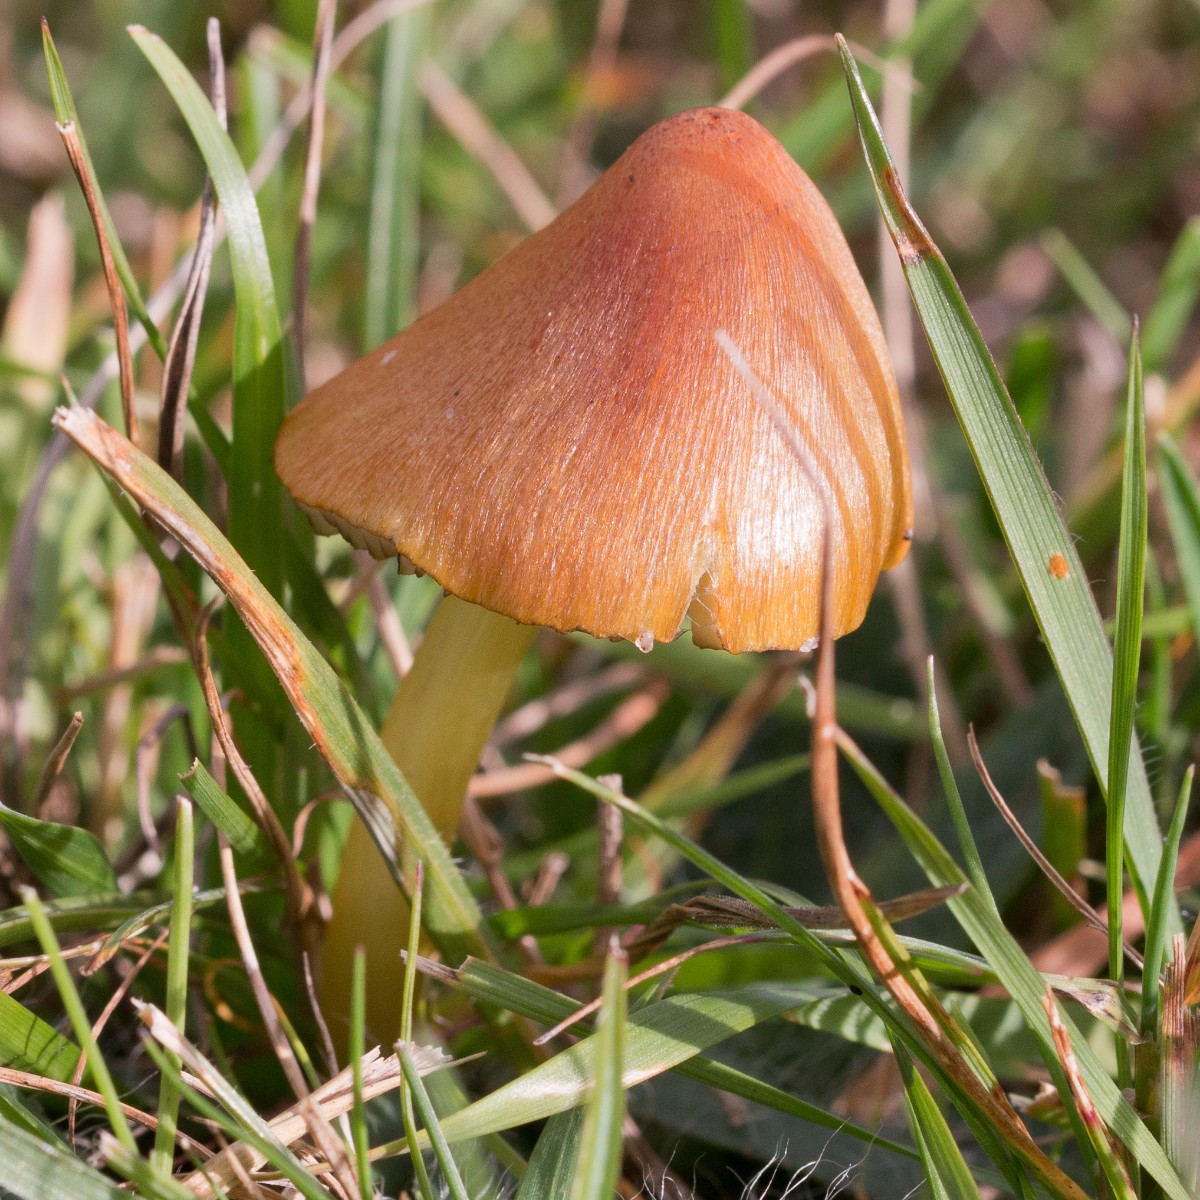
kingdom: Fungi
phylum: Basidiomycota
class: Agaricomycetes
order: Agaricales
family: Hygrophoraceae
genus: Hygrocybe
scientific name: Hygrocybe conica
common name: kegle-vokshat
